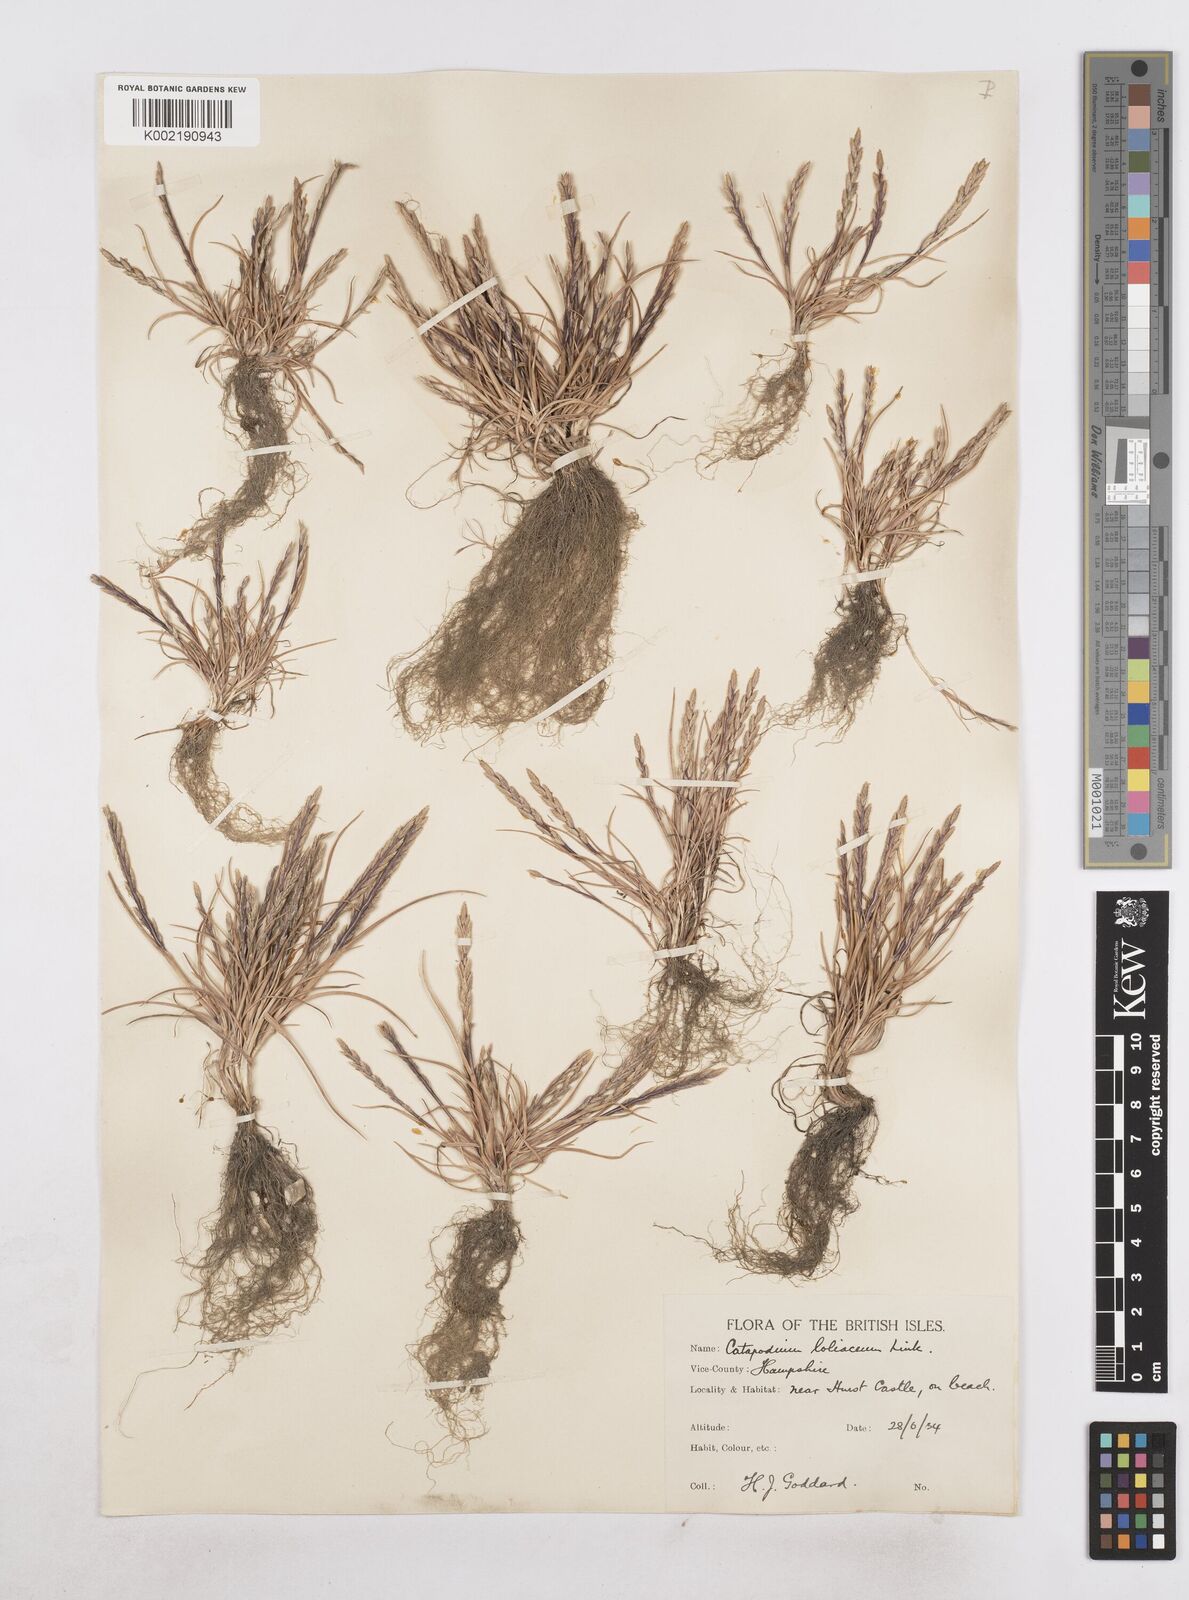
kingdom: Plantae
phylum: Tracheophyta
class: Liliopsida
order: Poales
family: Poaceae
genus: Catapodium
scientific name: Catapodium marinum
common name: Sea fern-grass
